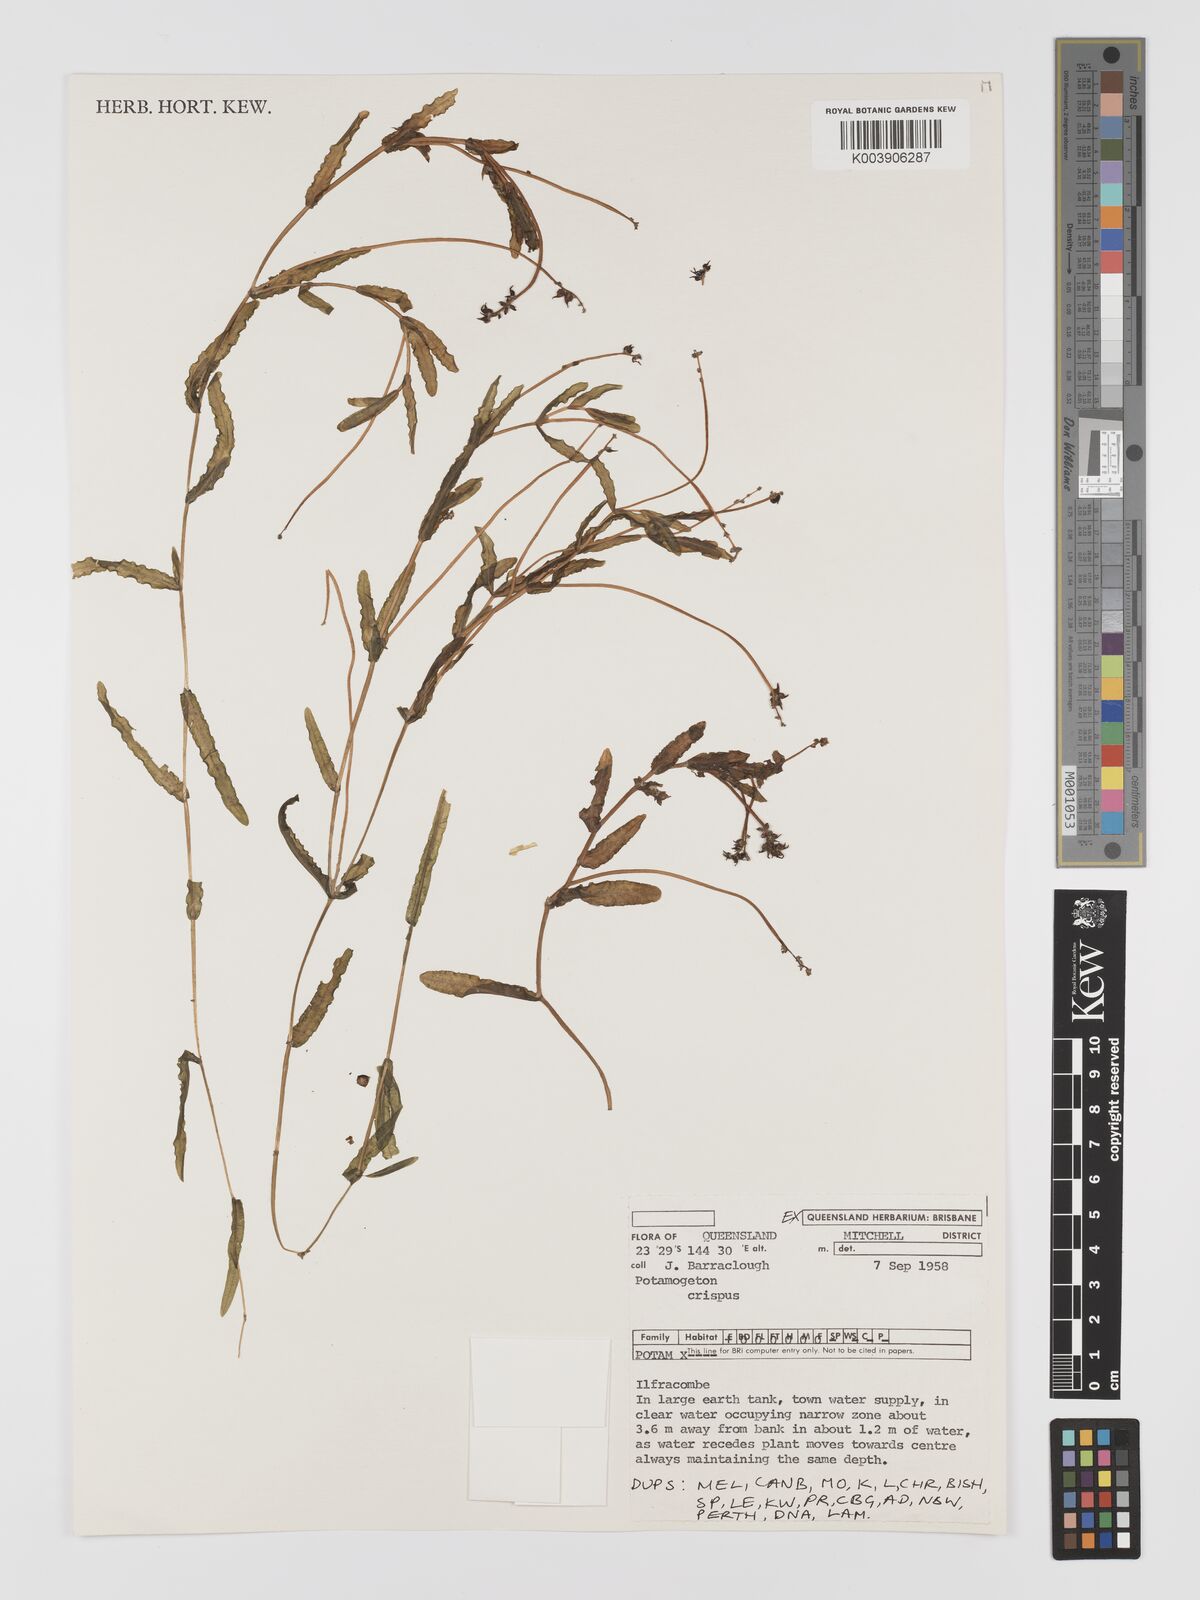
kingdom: Plantae
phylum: Tracheophyta
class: Liliopsida
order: Alismatales
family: Potamogetonaceae
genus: Potamogeton
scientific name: Potamogeton crispus
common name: Curled pondweed
